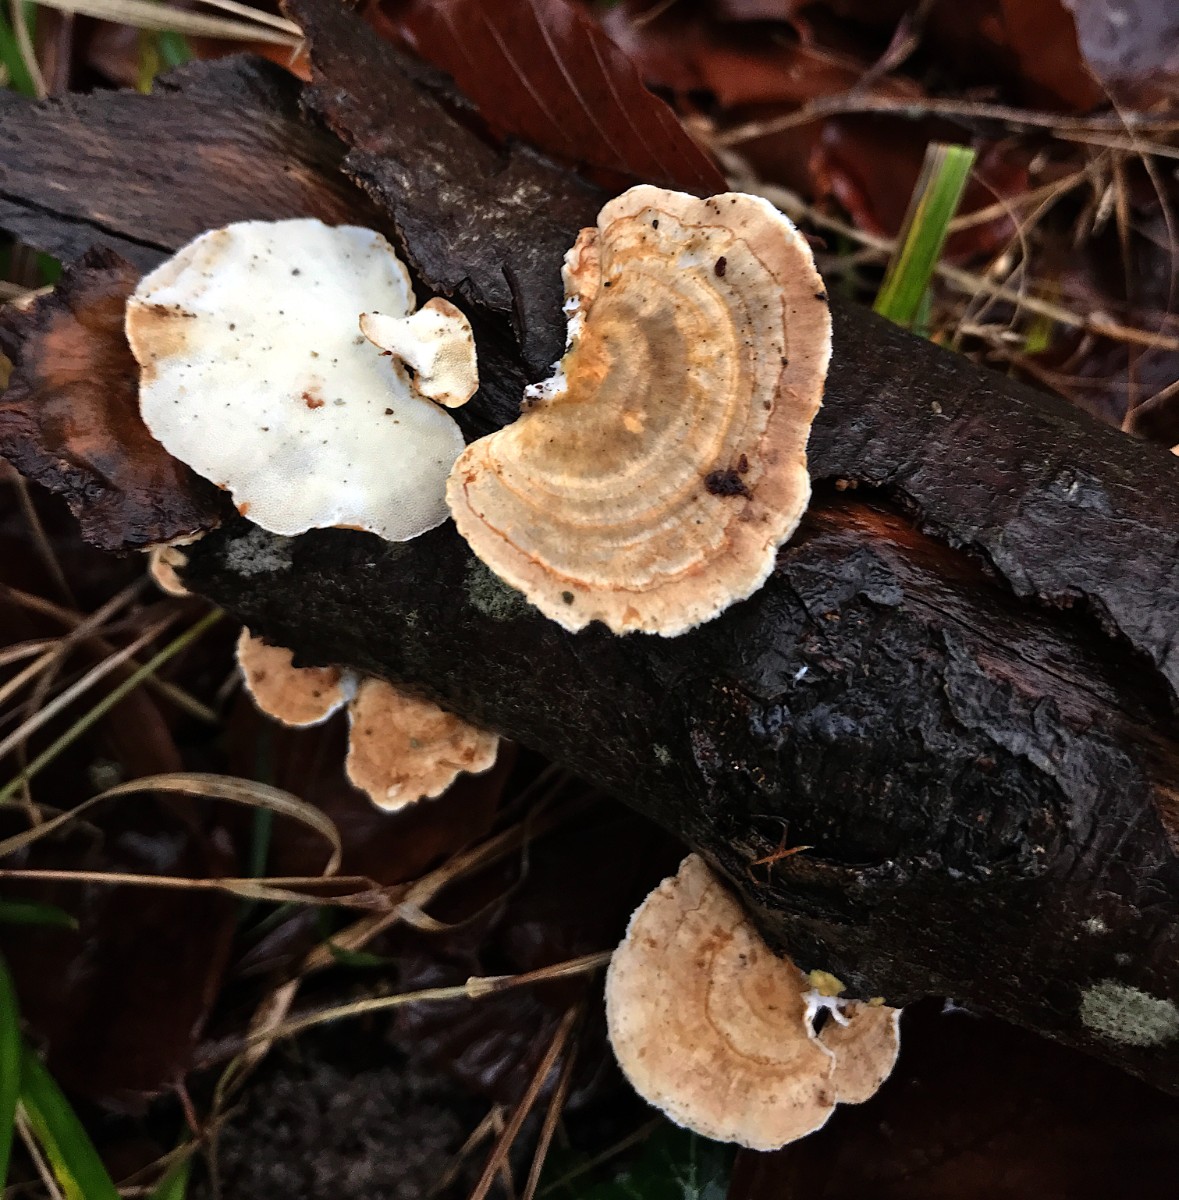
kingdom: Fungi
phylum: Basidiomycota
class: Agaricomycetes
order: Polyporales
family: Polyporaceae
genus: Trametes
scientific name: Trametes versicolor
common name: broget læderporesvamp
